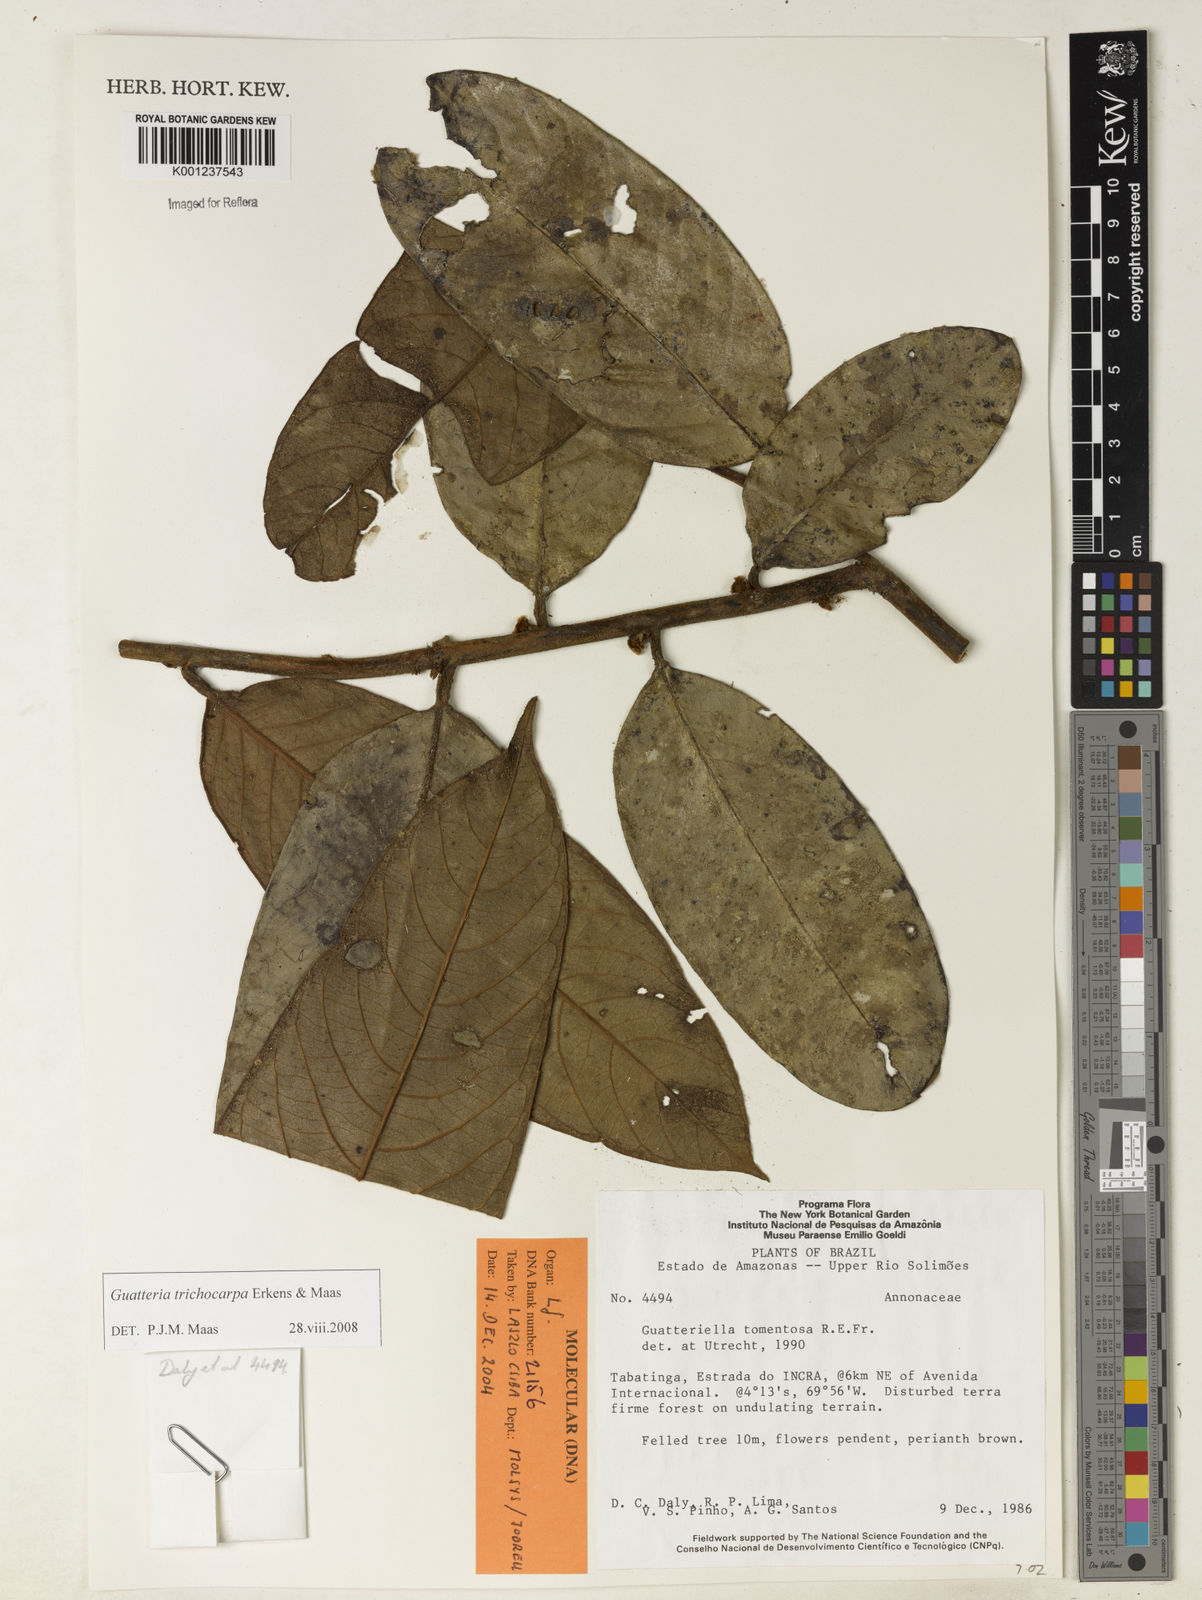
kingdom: Plantae
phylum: Tracheophyta
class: Magnoliopsida
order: Magnoliales
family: Annonaceae
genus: Guatteria
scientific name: Guatteria trichocarpa
